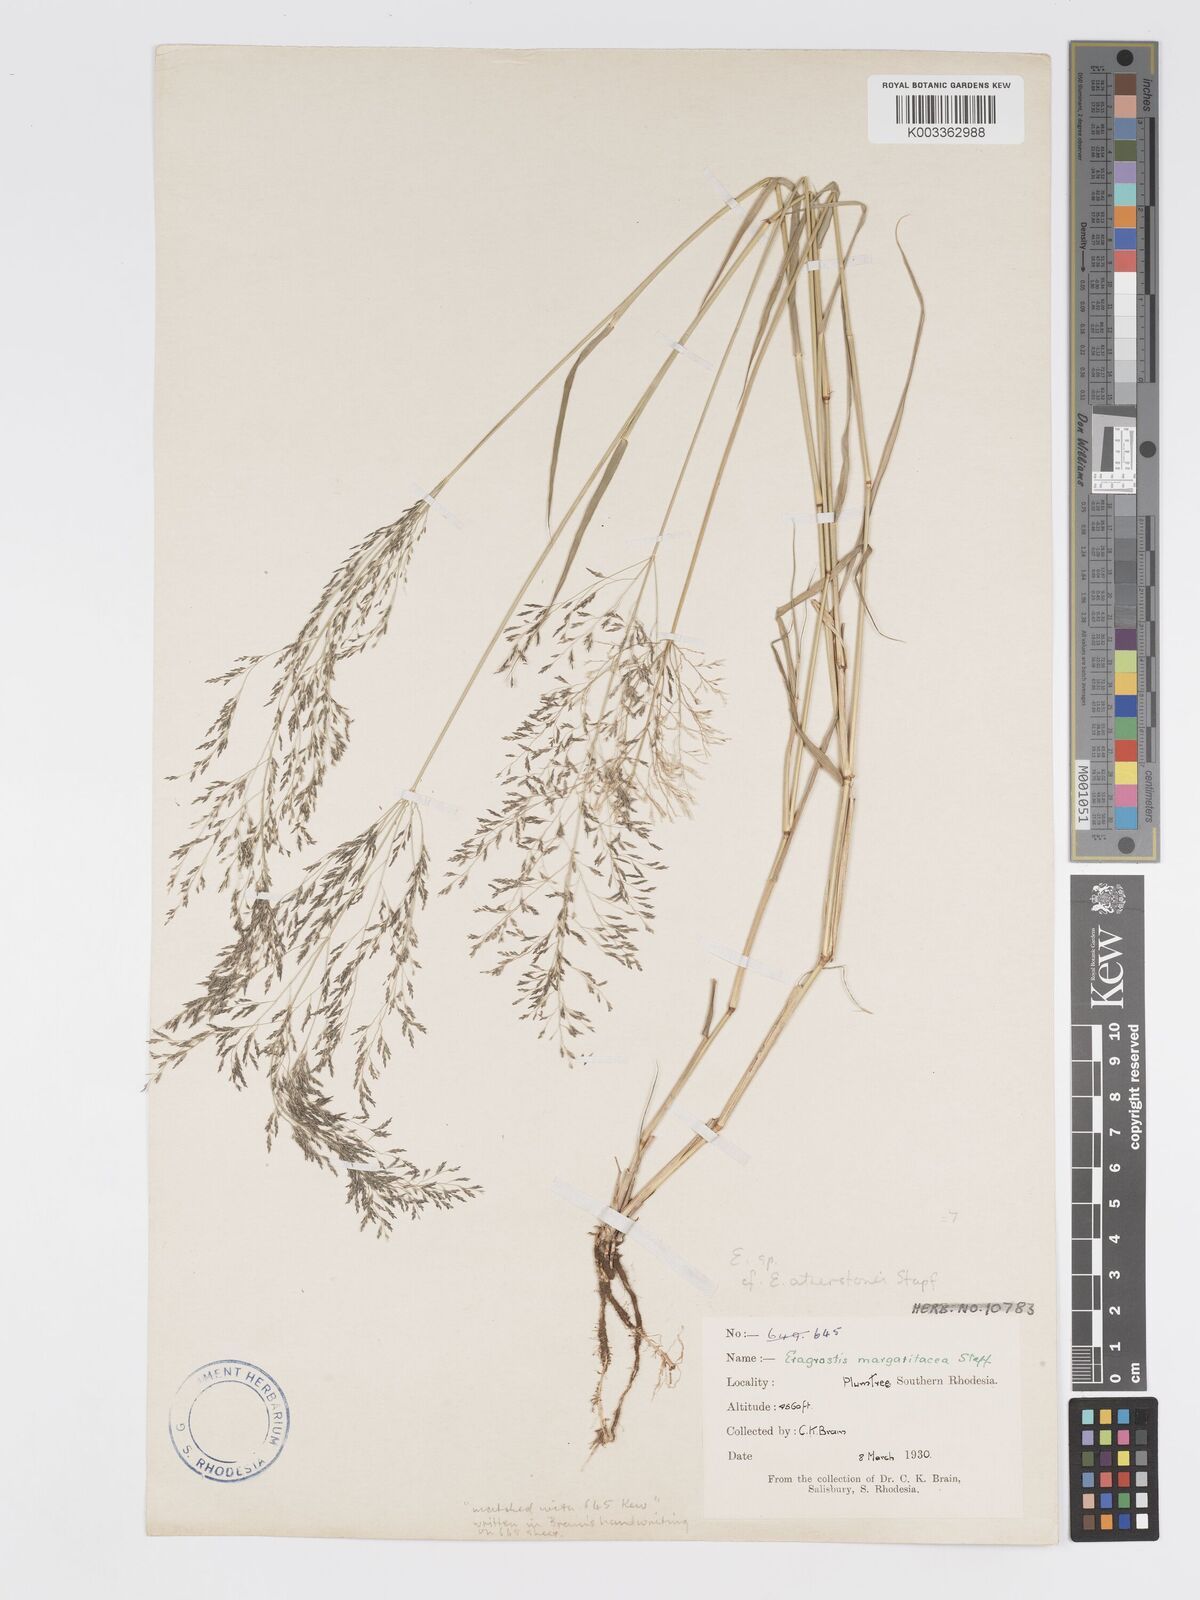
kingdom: Plantae
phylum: Tracheophyta
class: Liliopsida
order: Poales
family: Poaceae
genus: Eragrostis
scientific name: Eragrostis cylindriflora
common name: Cylinderflower lovegrass
